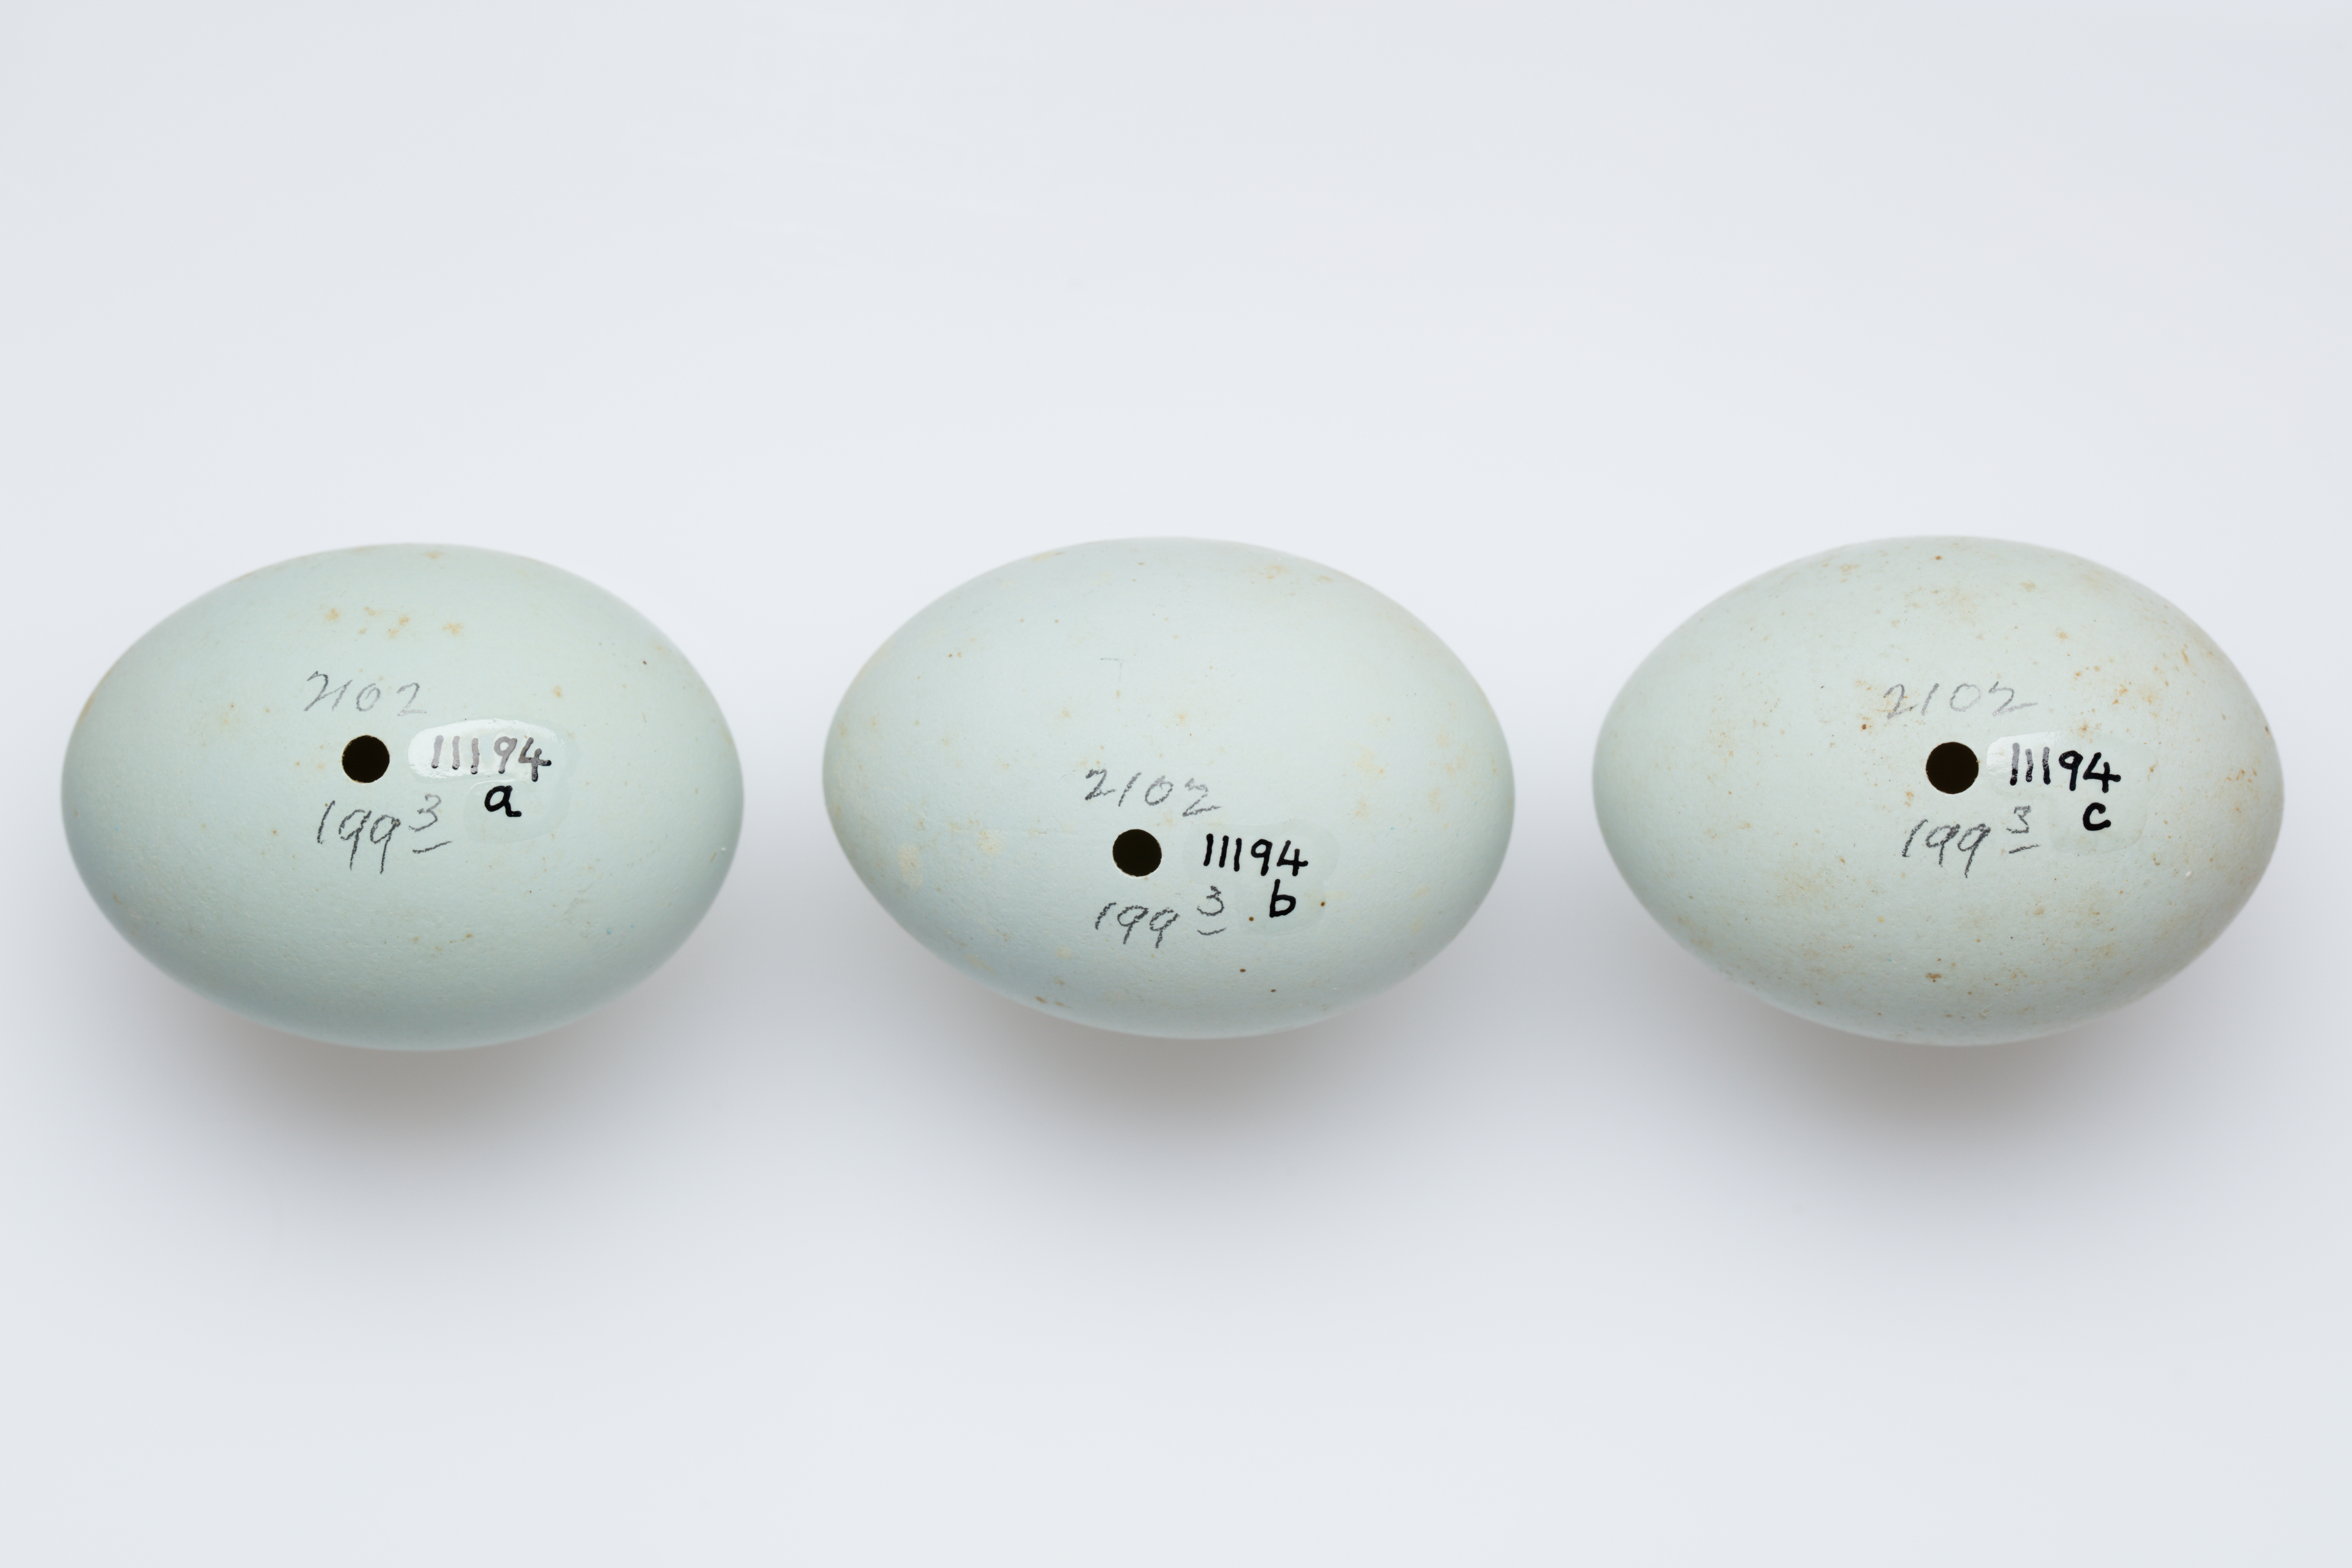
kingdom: Animalia
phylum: Chordata
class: Aves
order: Pelecaniformes
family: Ardeidae
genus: Egretta
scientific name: Egretta tricolor
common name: Tricolored heron
